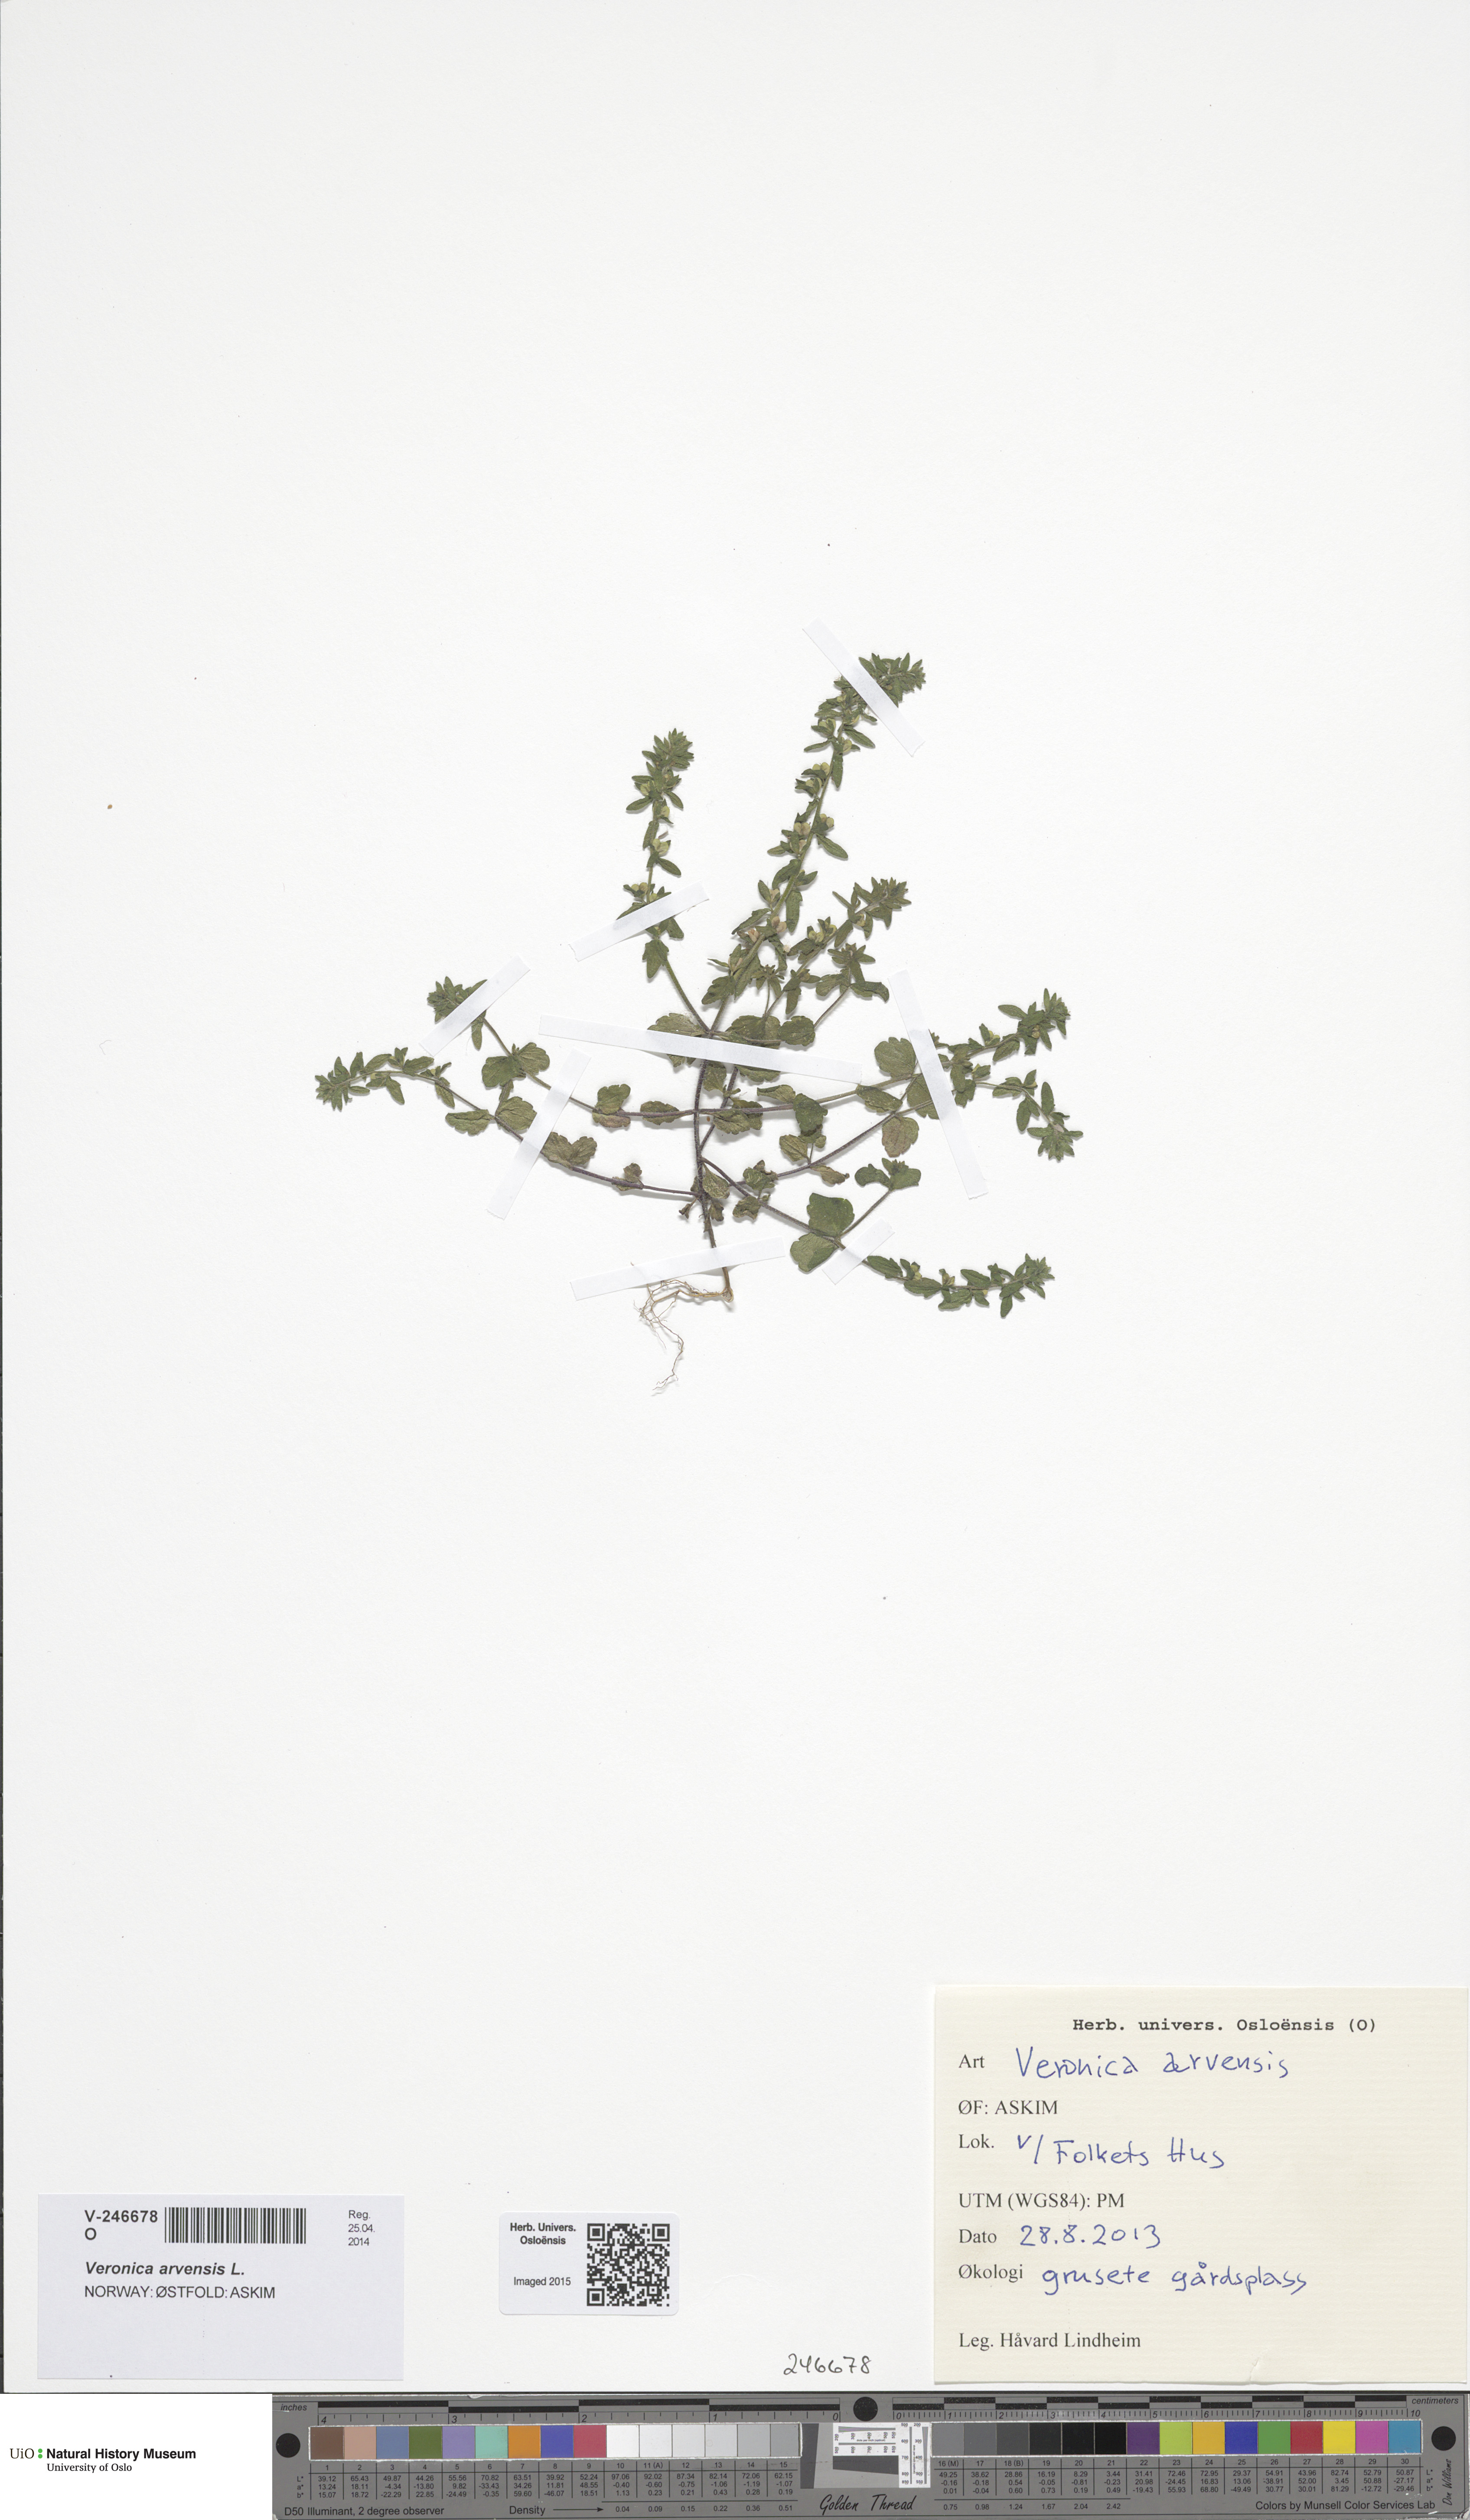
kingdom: Plantae
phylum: Tracheophyta
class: Magnoliopsida
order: Lamiales
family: Plantaginaceae
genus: Veronica
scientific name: Veronica arvensis
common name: Corn speedwell
